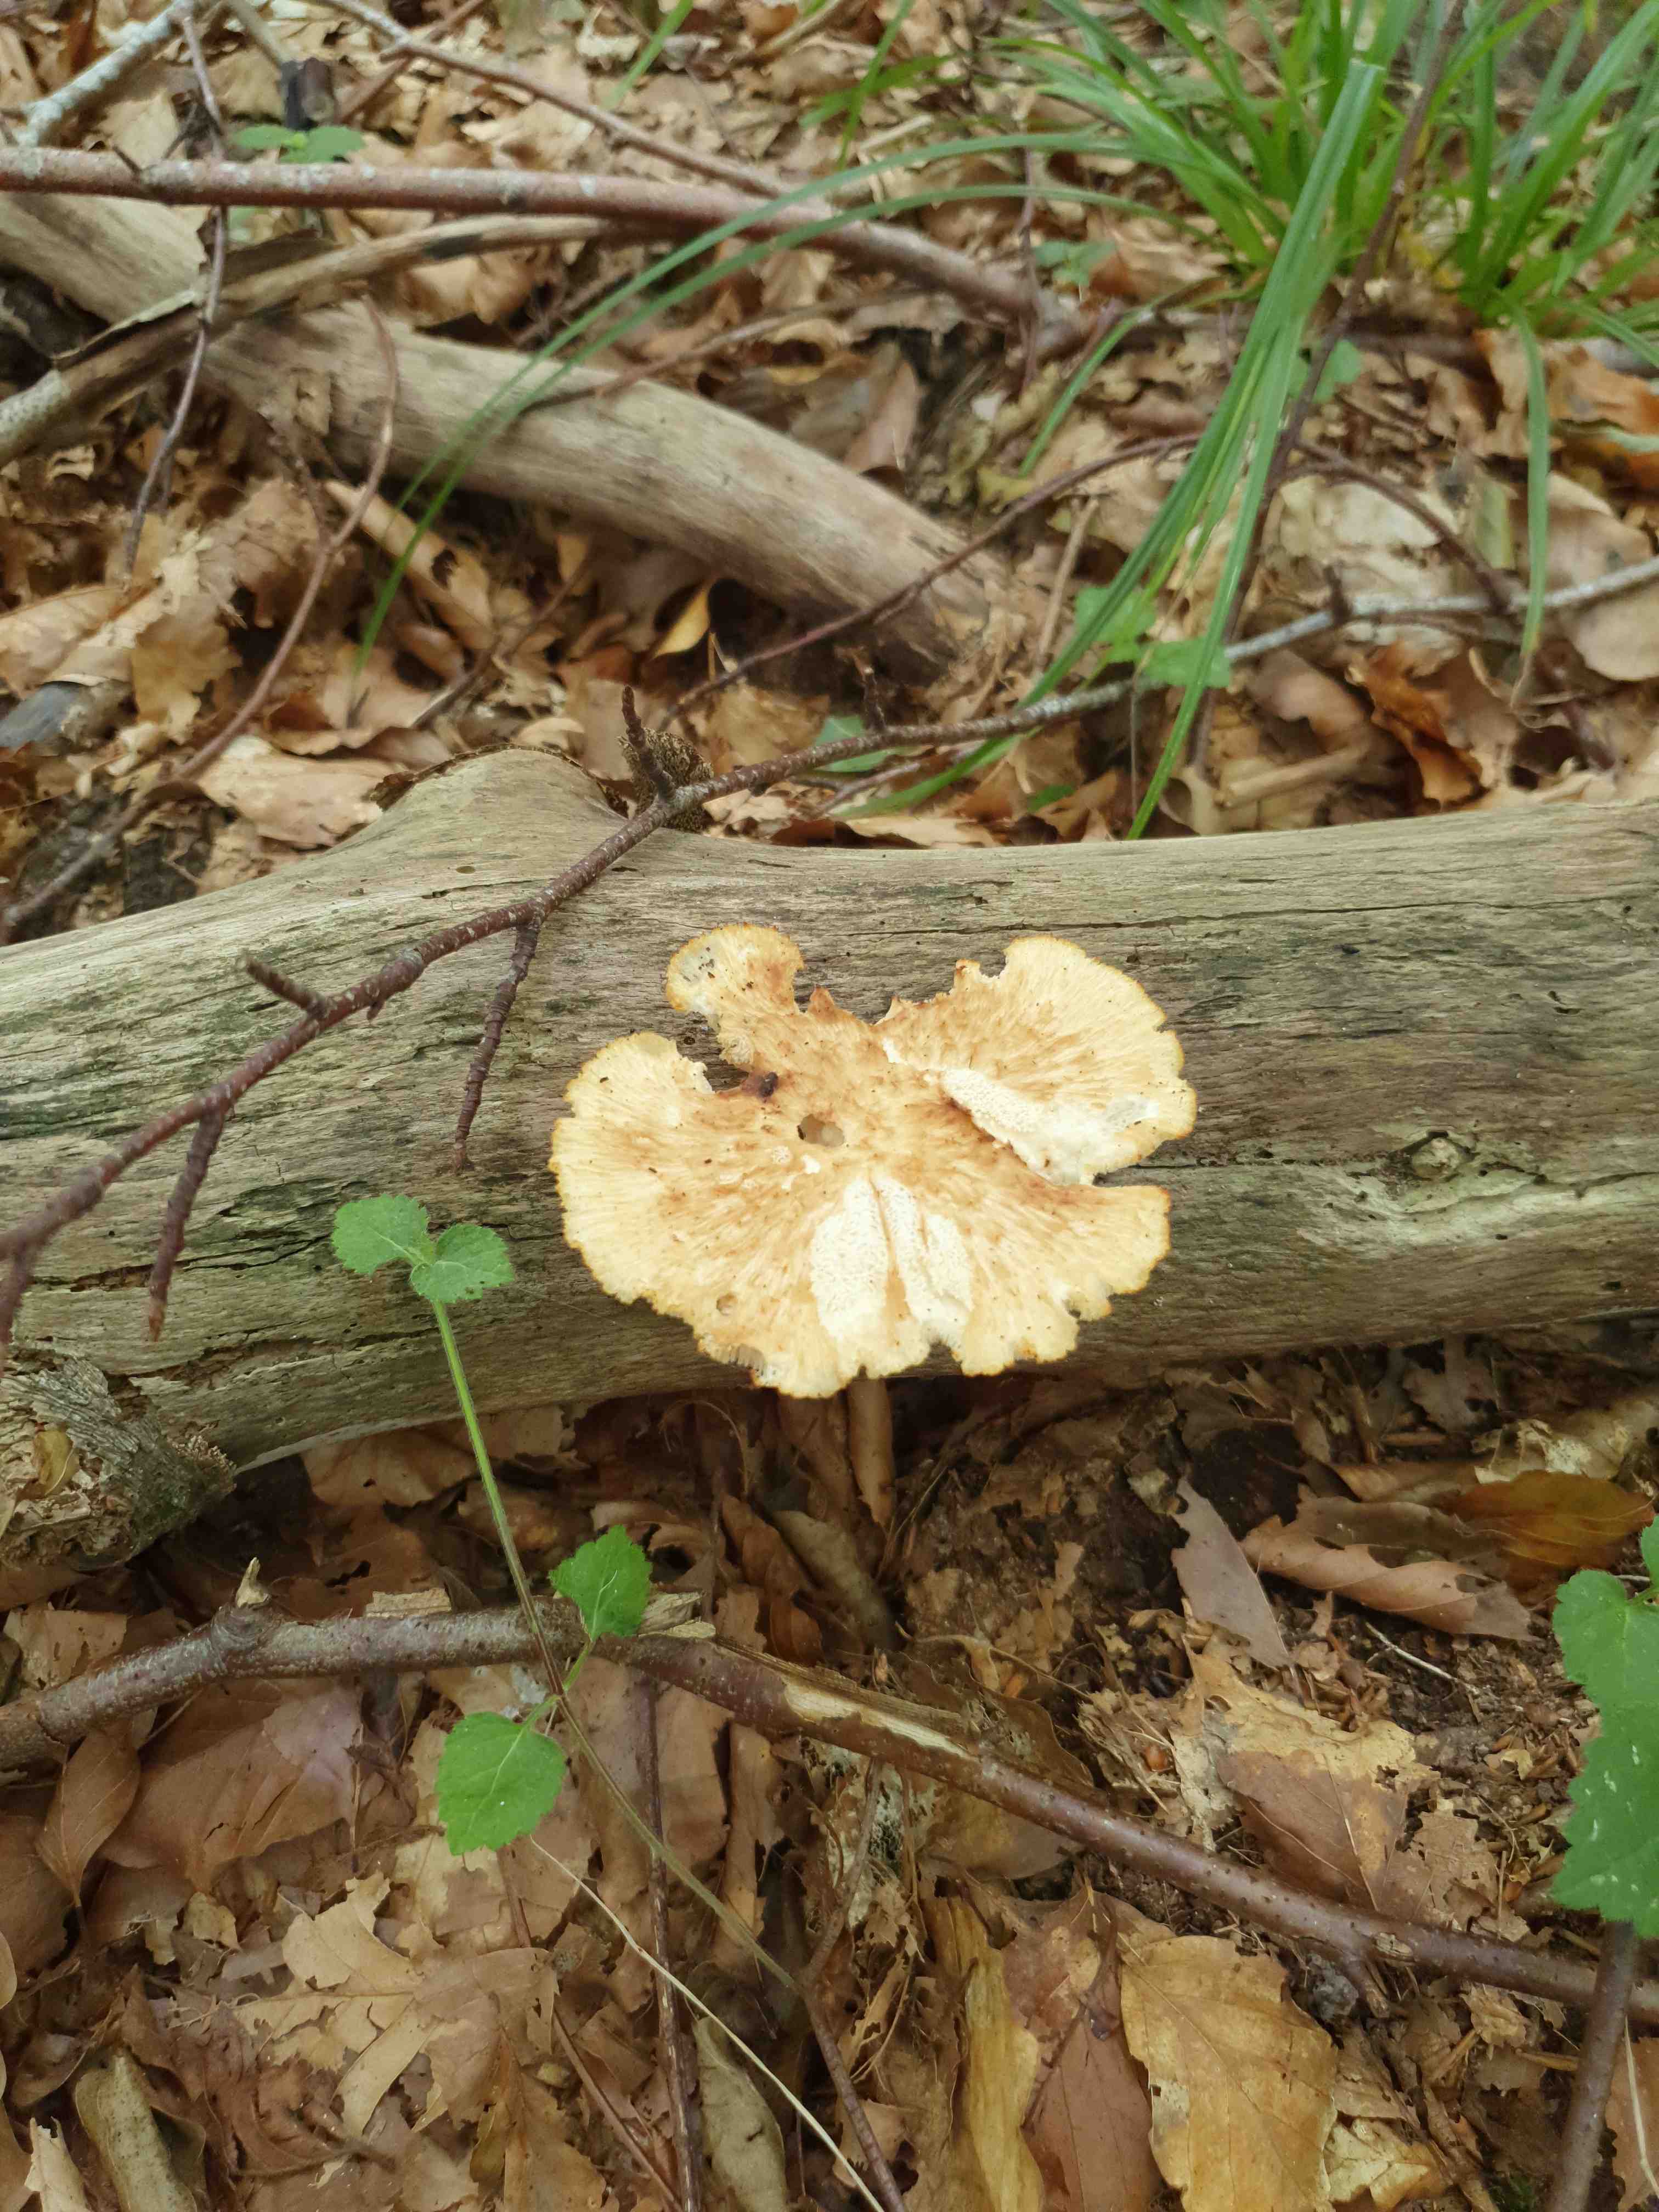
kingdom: Fungi
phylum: Basidiomycota
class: Agaricomycetes
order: Polyporales
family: Polyporaceae
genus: Polyporus
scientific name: Polyporus tuberaster
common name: knoldet stilkporesvamp
